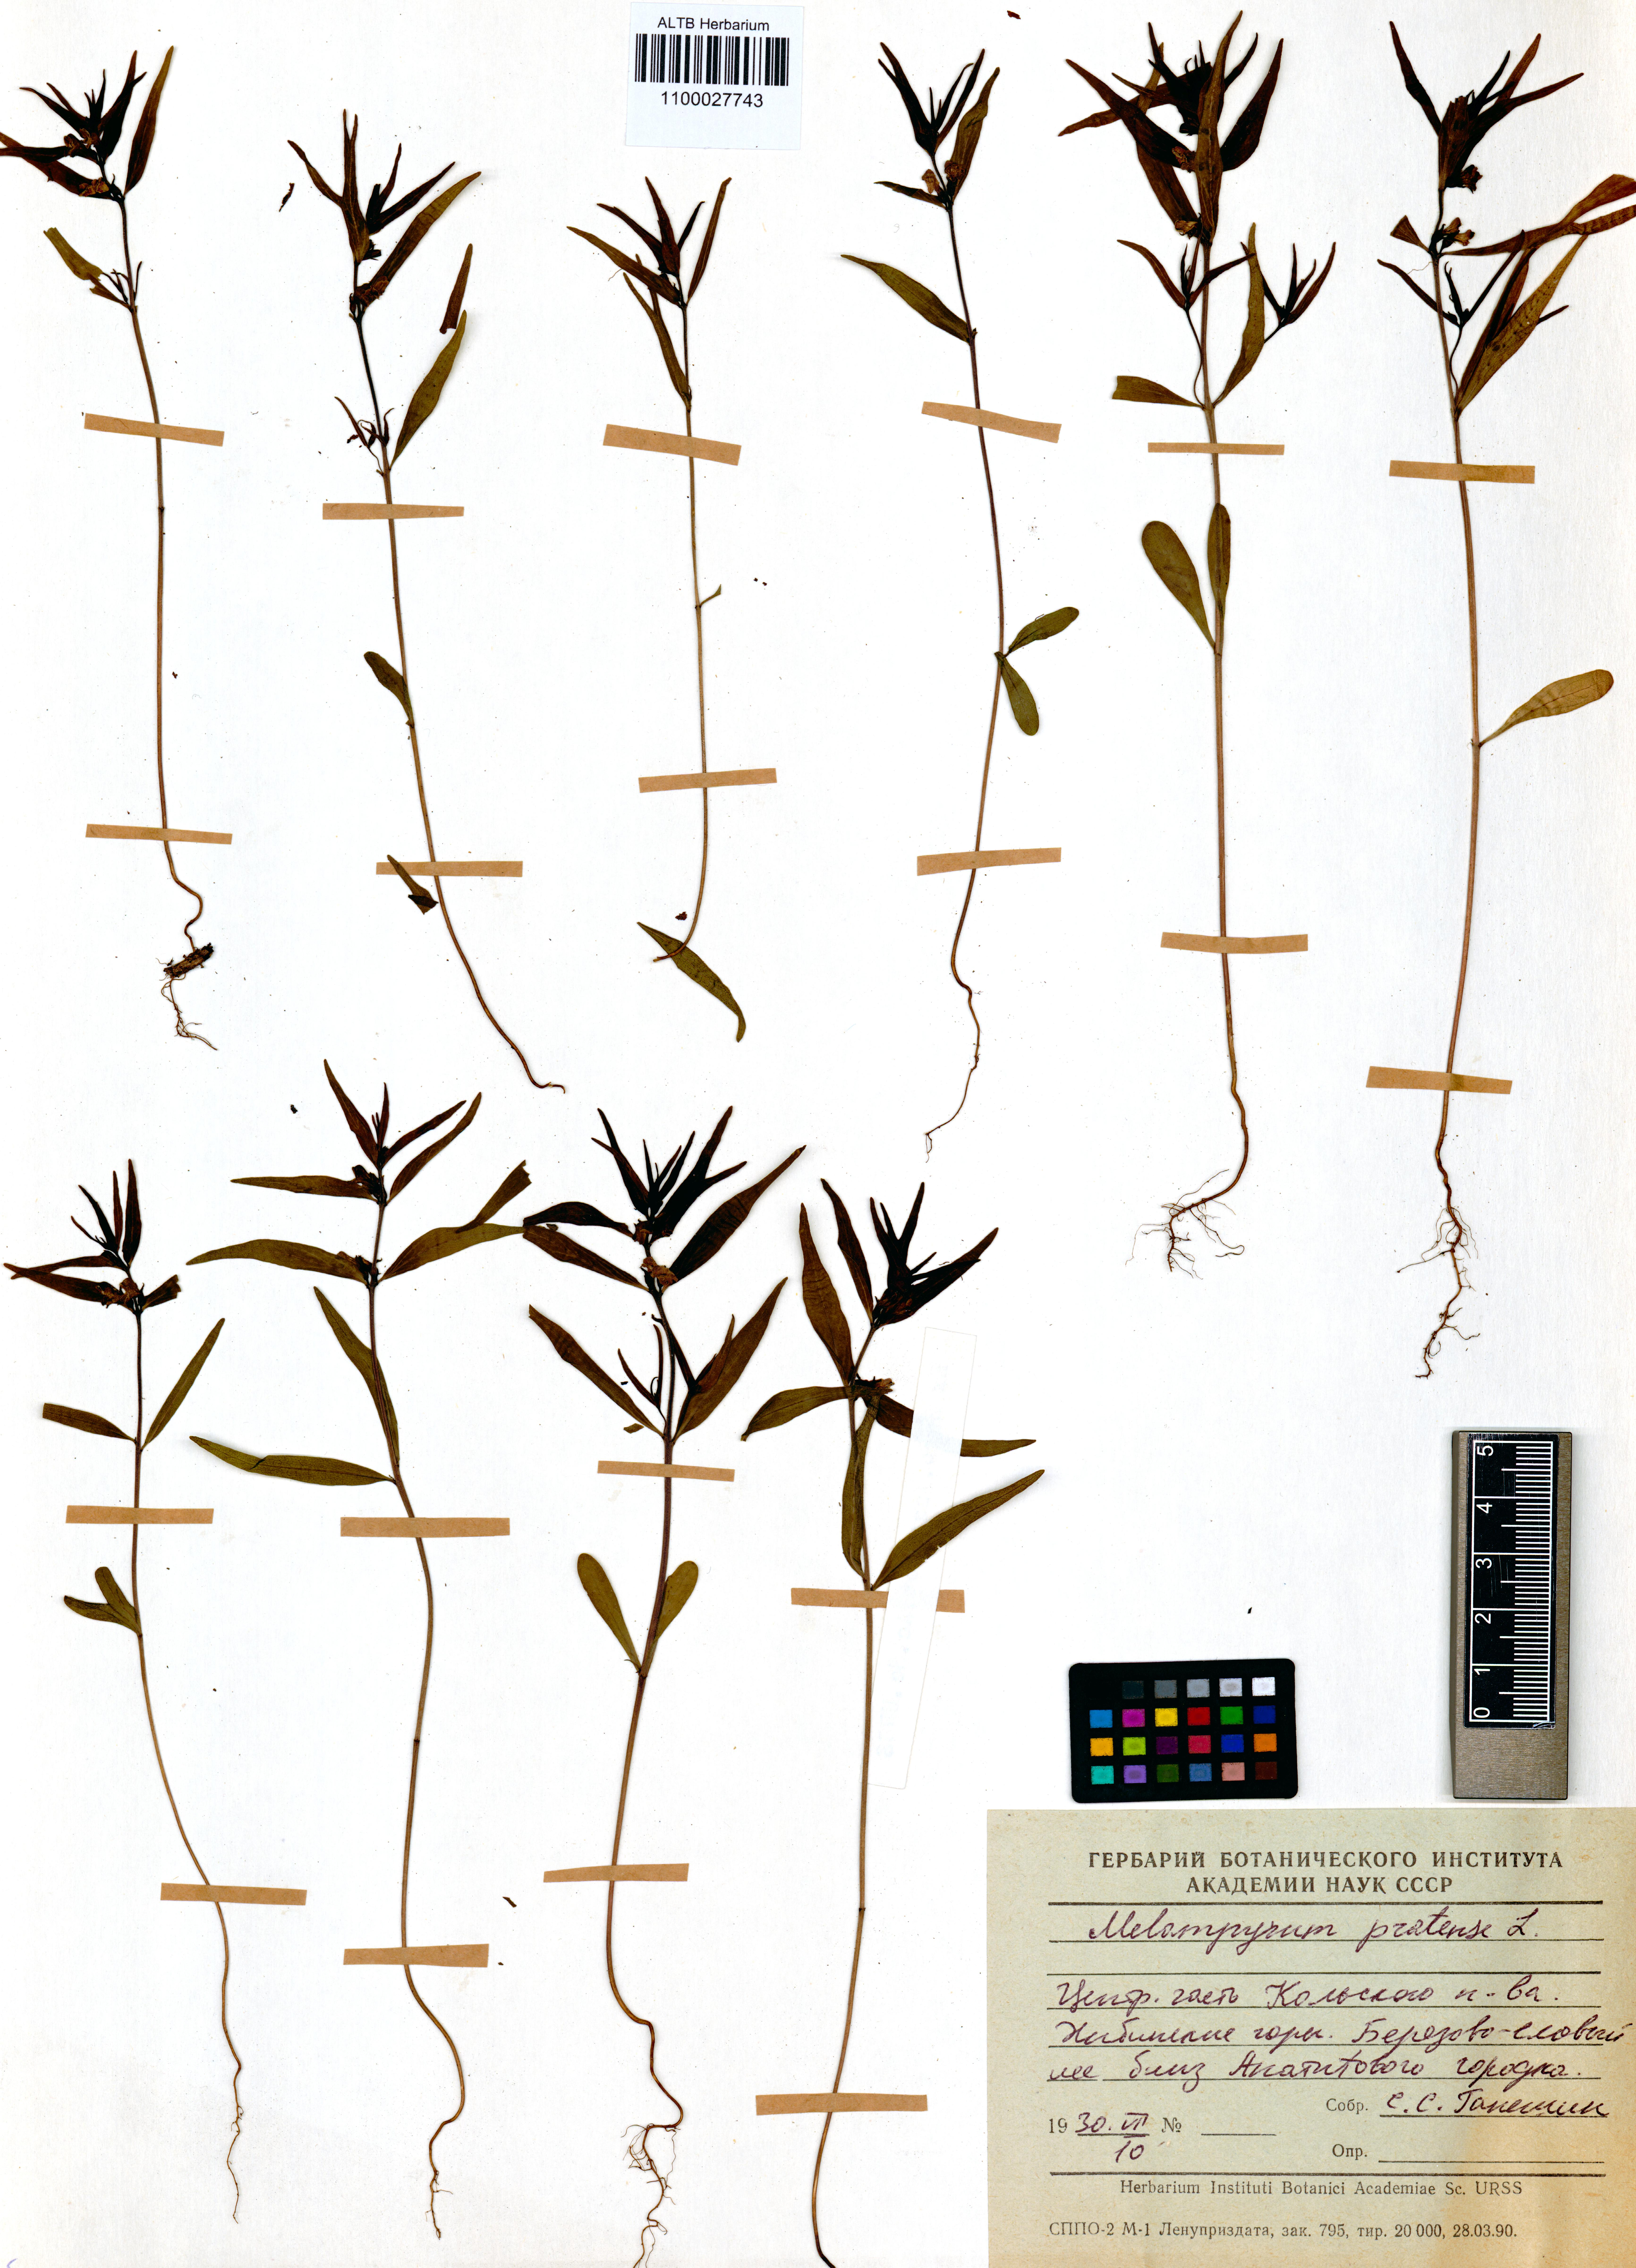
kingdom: Plantae
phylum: Tracheophyta
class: Magnoliopsida
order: Lamiales
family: Orobanchaceae
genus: Melampyrum
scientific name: Melampyrum pratense
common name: Common cow-wheat
